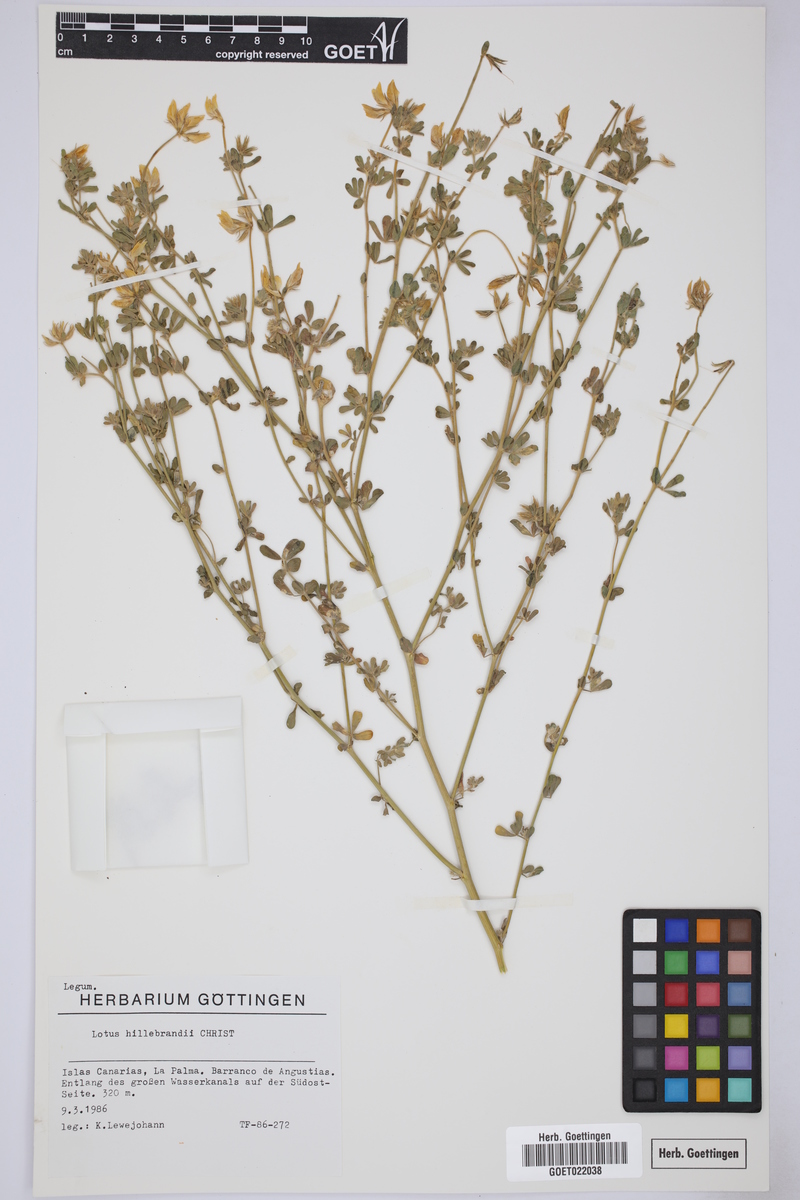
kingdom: Plantae
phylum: Tracheophyta
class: Magnoliopsida
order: Fabales
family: Fabaceae
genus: Lotus
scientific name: Lotus campylocladus
